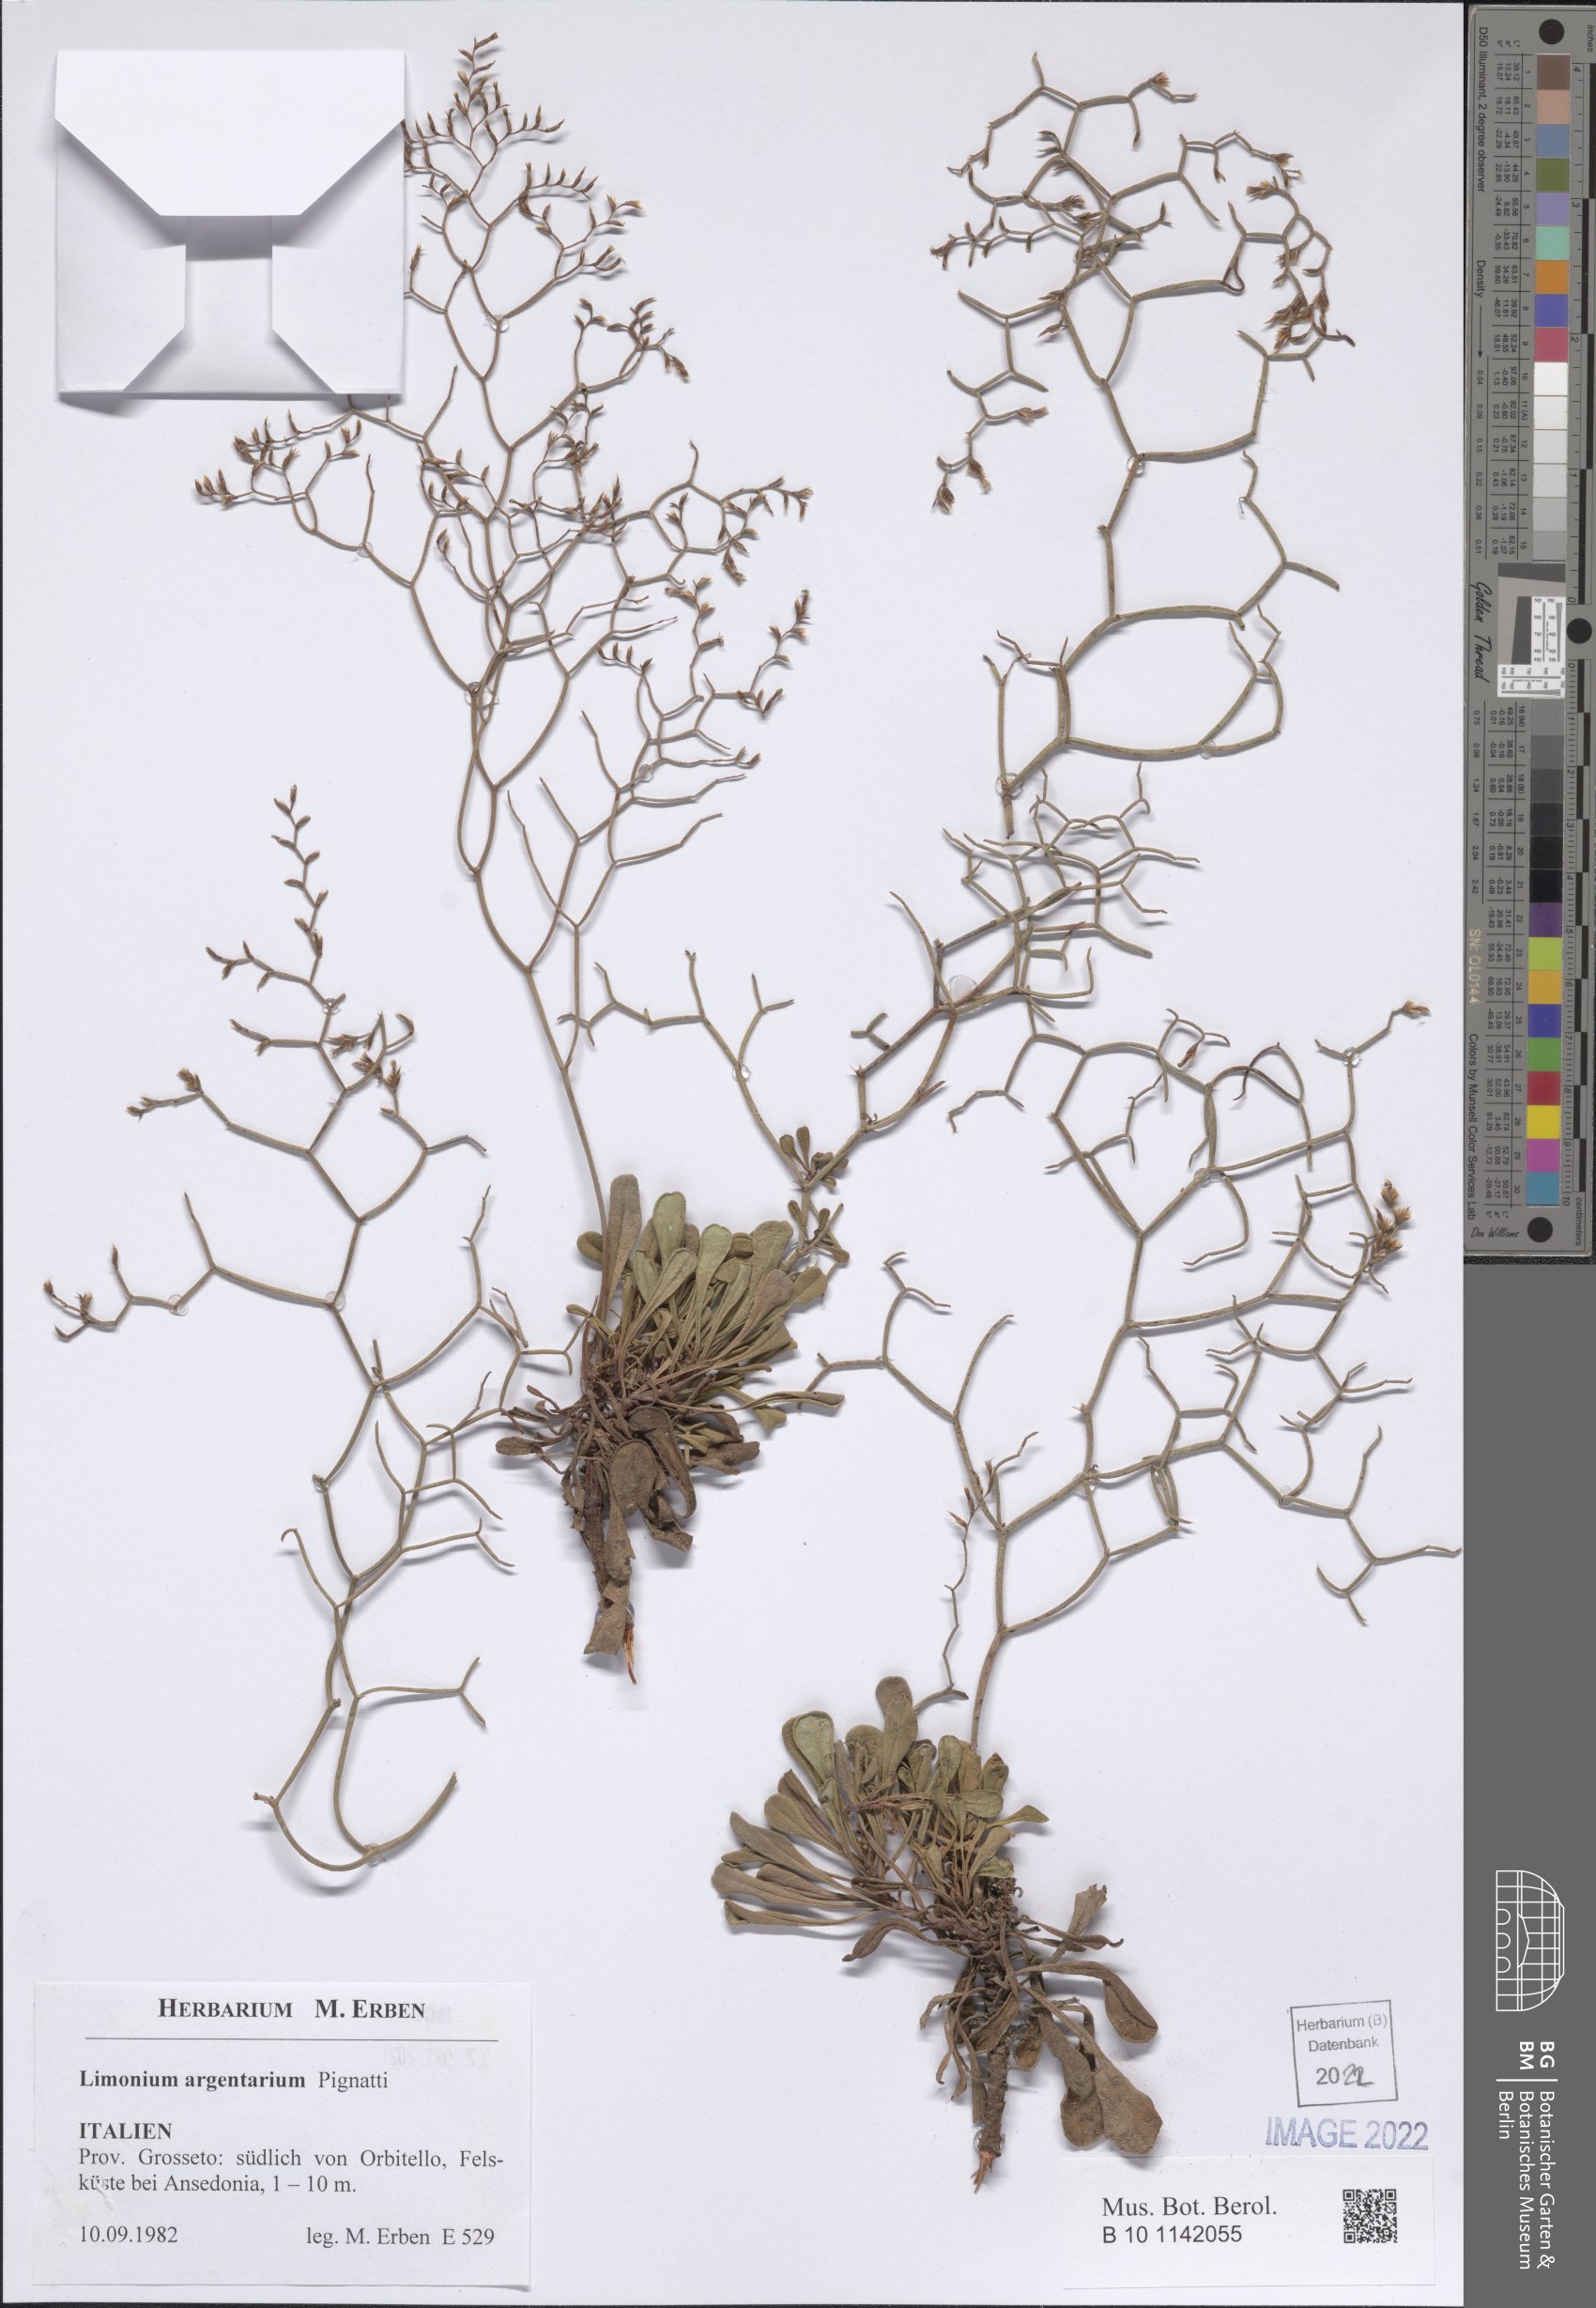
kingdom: Plantae
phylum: Tracheophyta
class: Magnoliopsida
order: Caryophyllales
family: Plumbaginaceae
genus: Limonium
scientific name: Limonium multiforme
